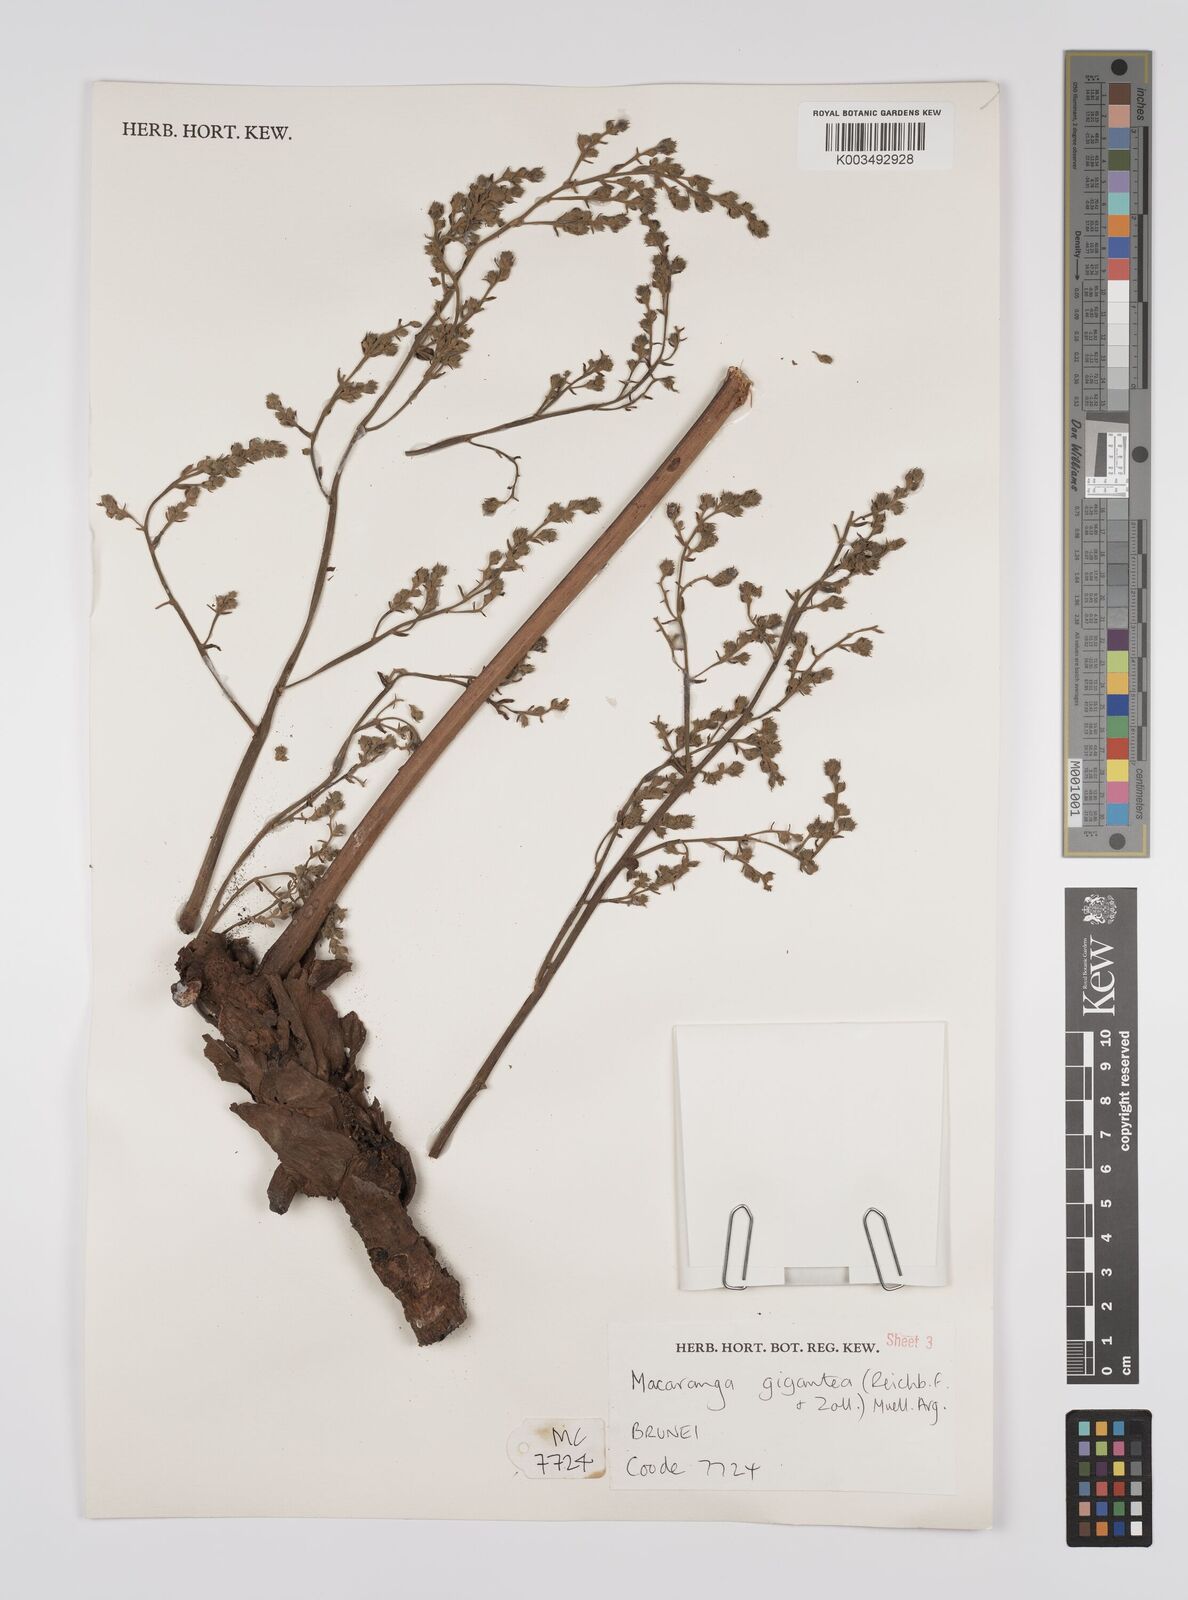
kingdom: Plantae
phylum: Tracheophyta
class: Magnoliopsida
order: Malpighiales
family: Euphorbiaceae
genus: Macaranga
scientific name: Macaranga gigantea
